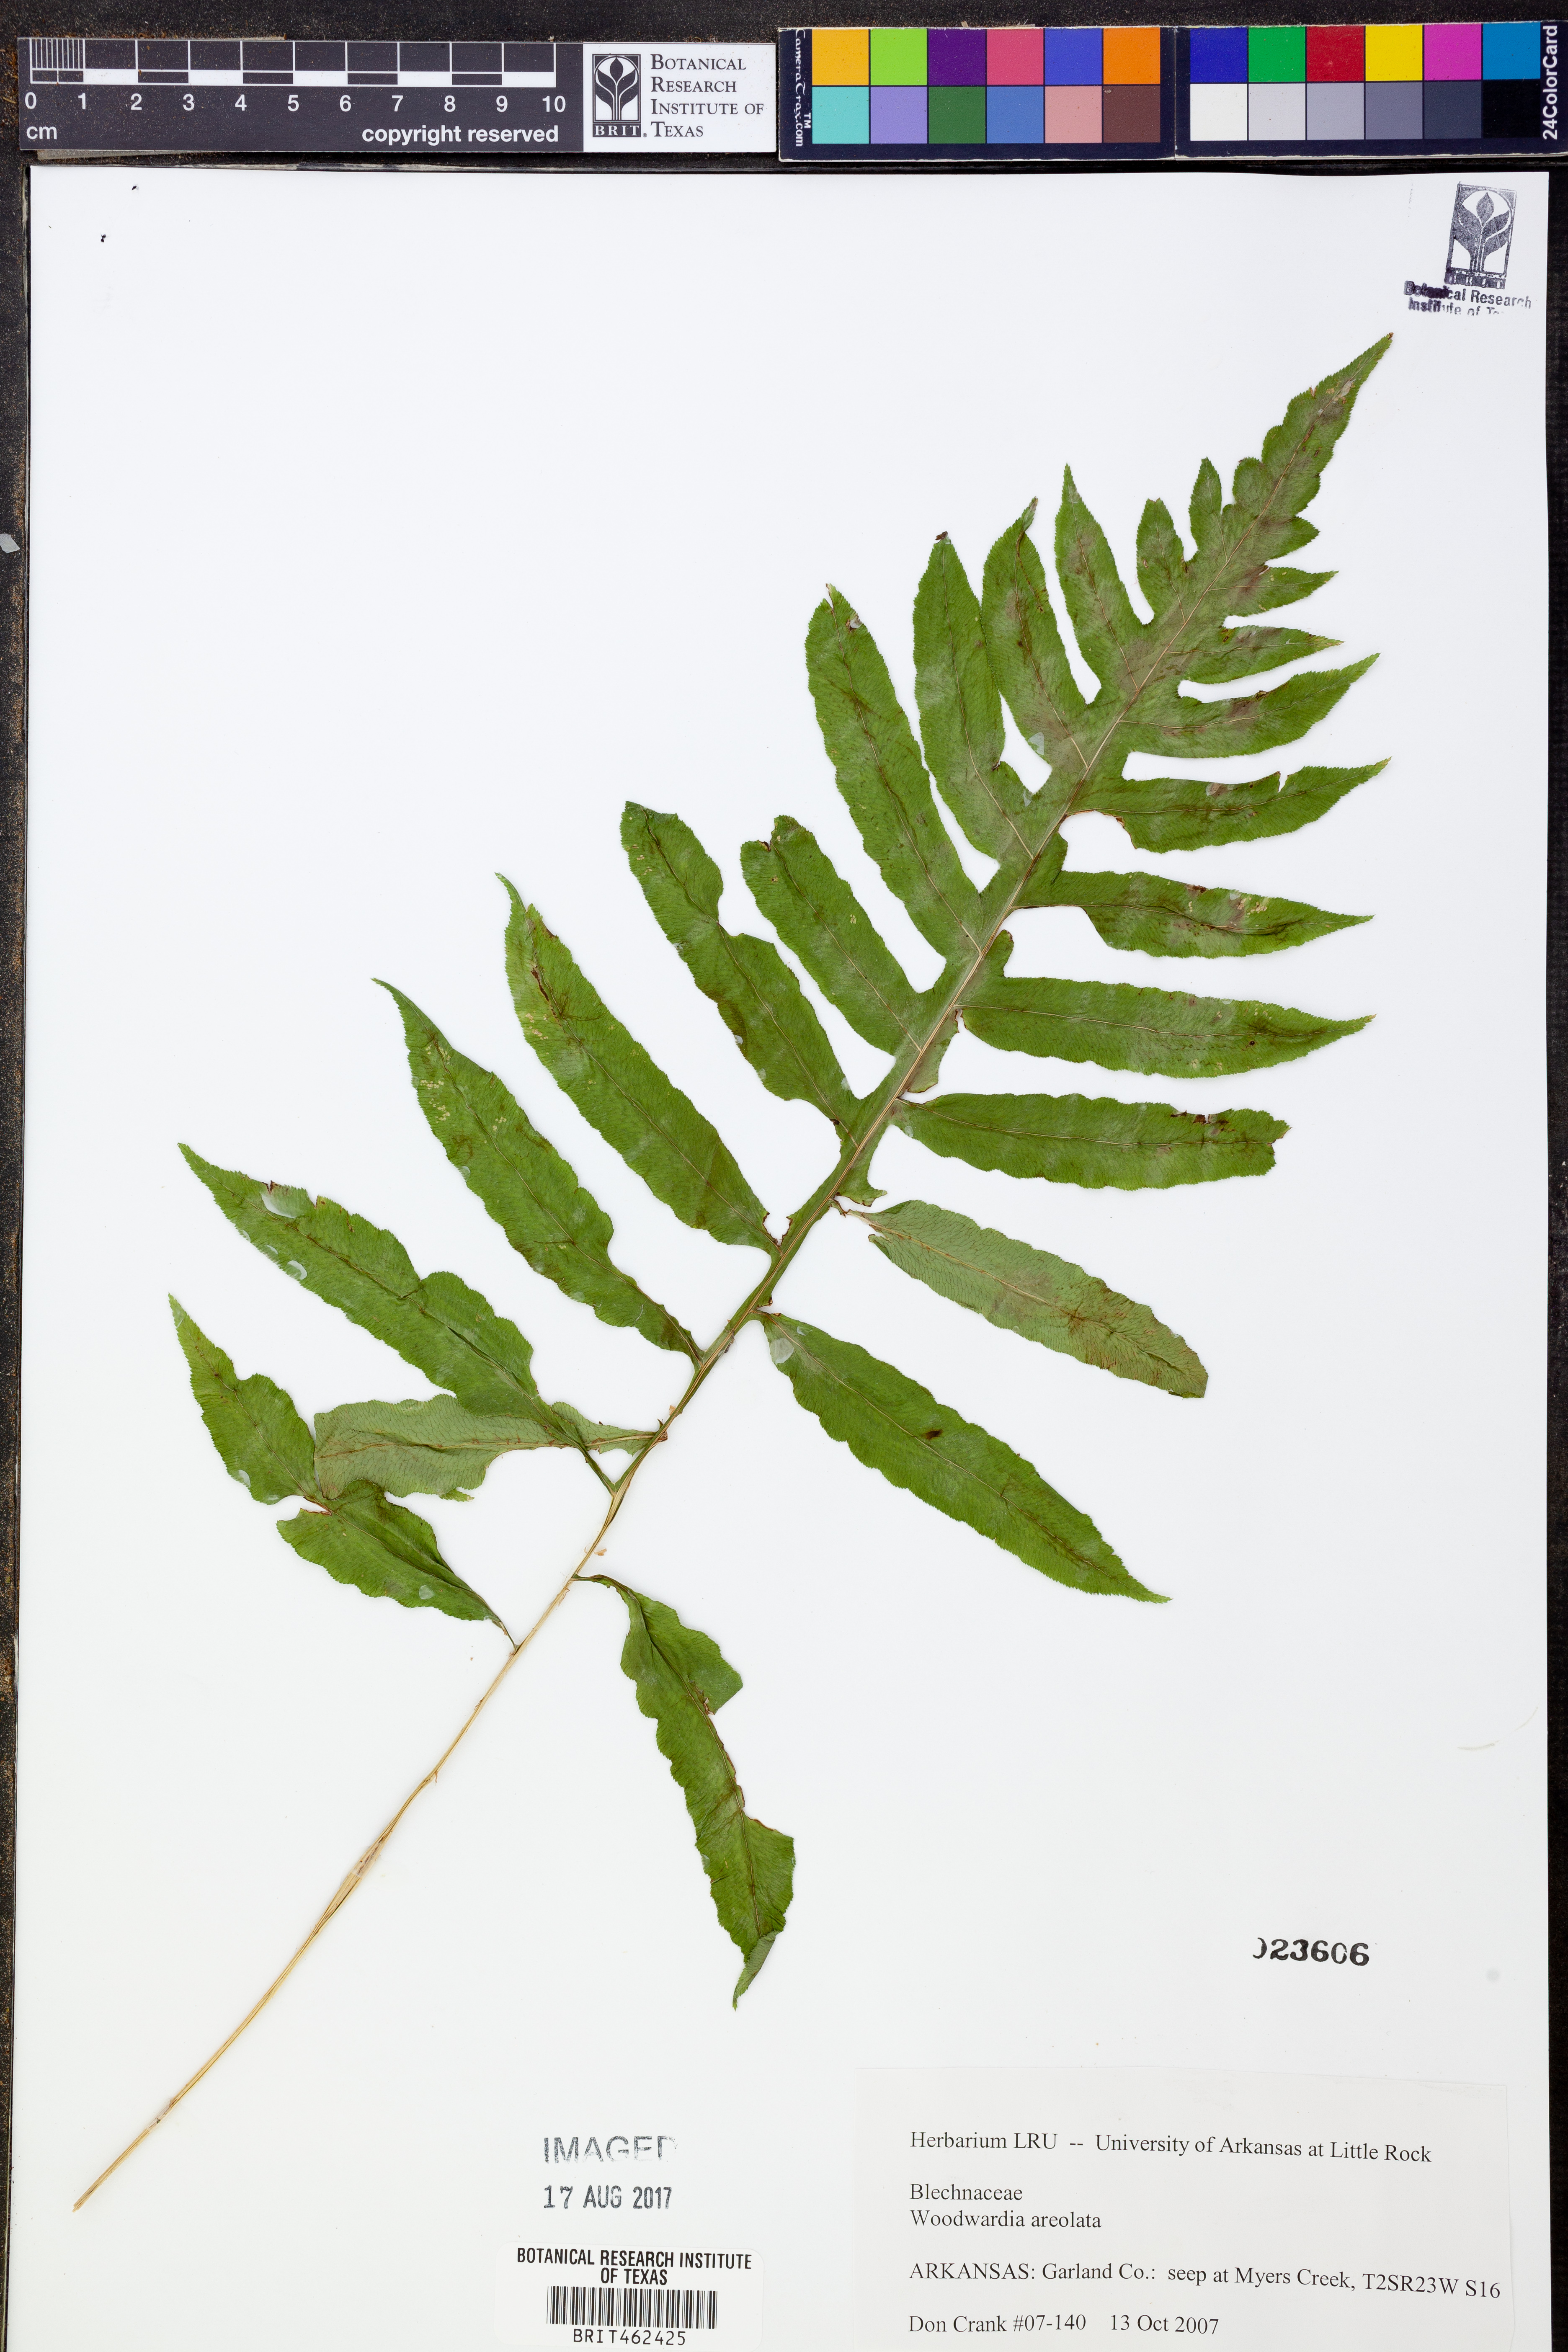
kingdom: Plantae
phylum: Tracheophyta
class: Polypodiopsida
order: Polypodiales
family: Blechnaceae
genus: Lorinseria
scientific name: Lorinseria areolata
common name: Dwarf chain fern
